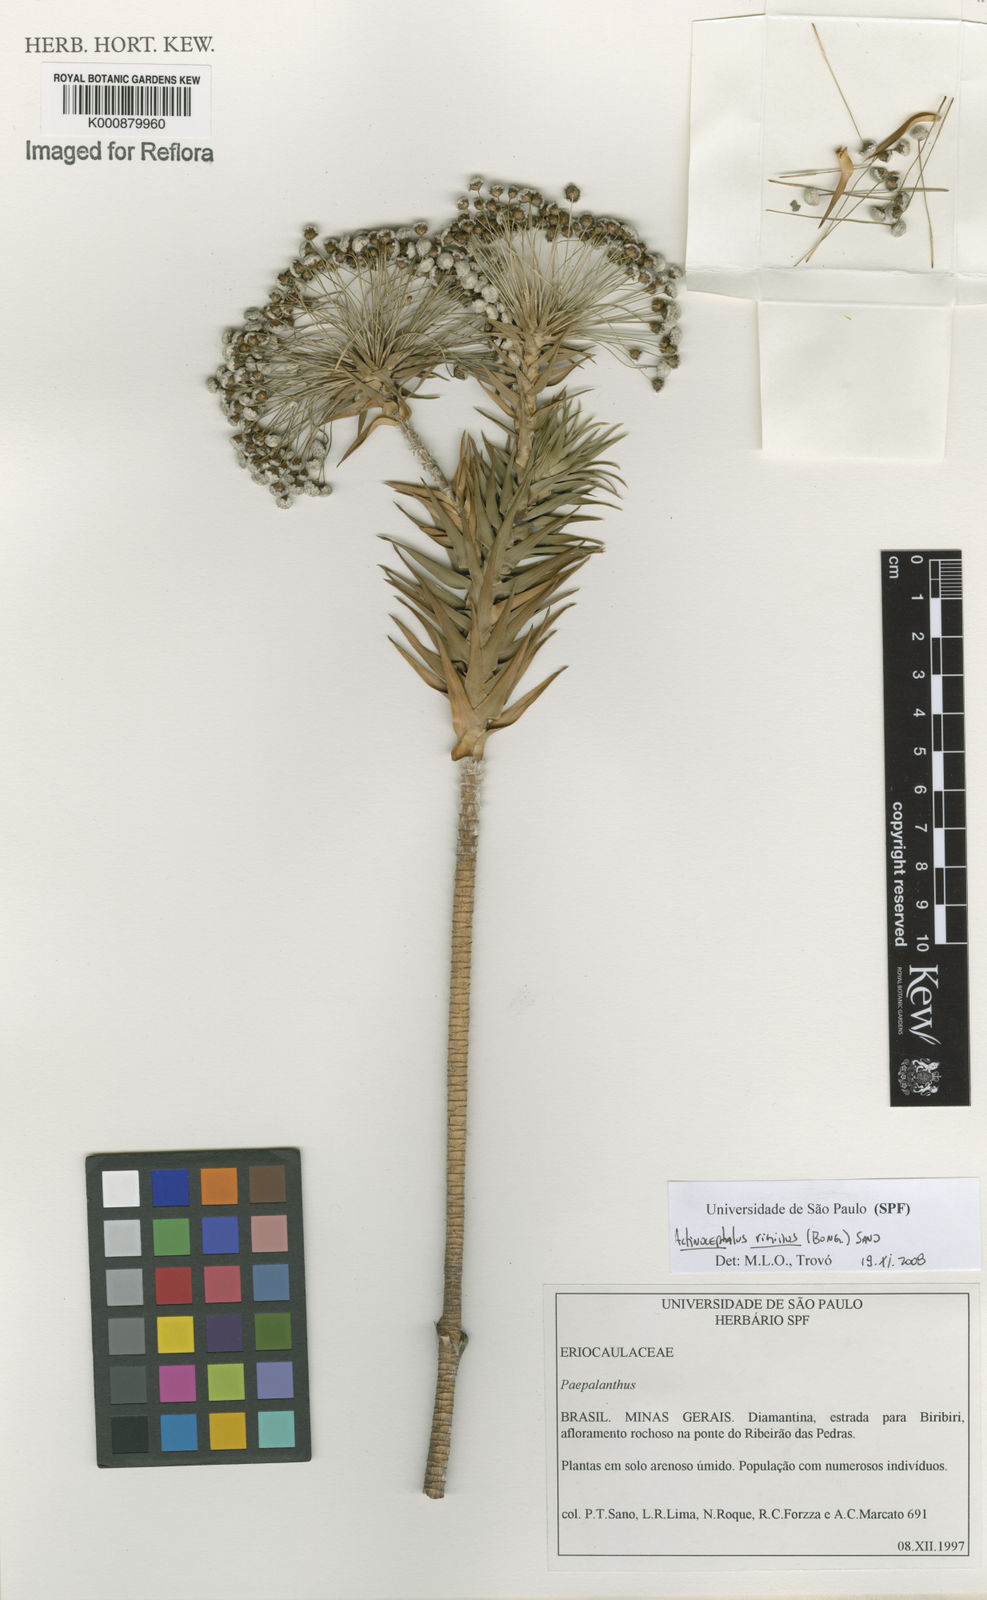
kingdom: Plantae
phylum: Tracheophyta
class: Liliopsida
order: Poales
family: Eriocaulaceae
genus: Paepalanthus
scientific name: Paepalanthus rigidus
